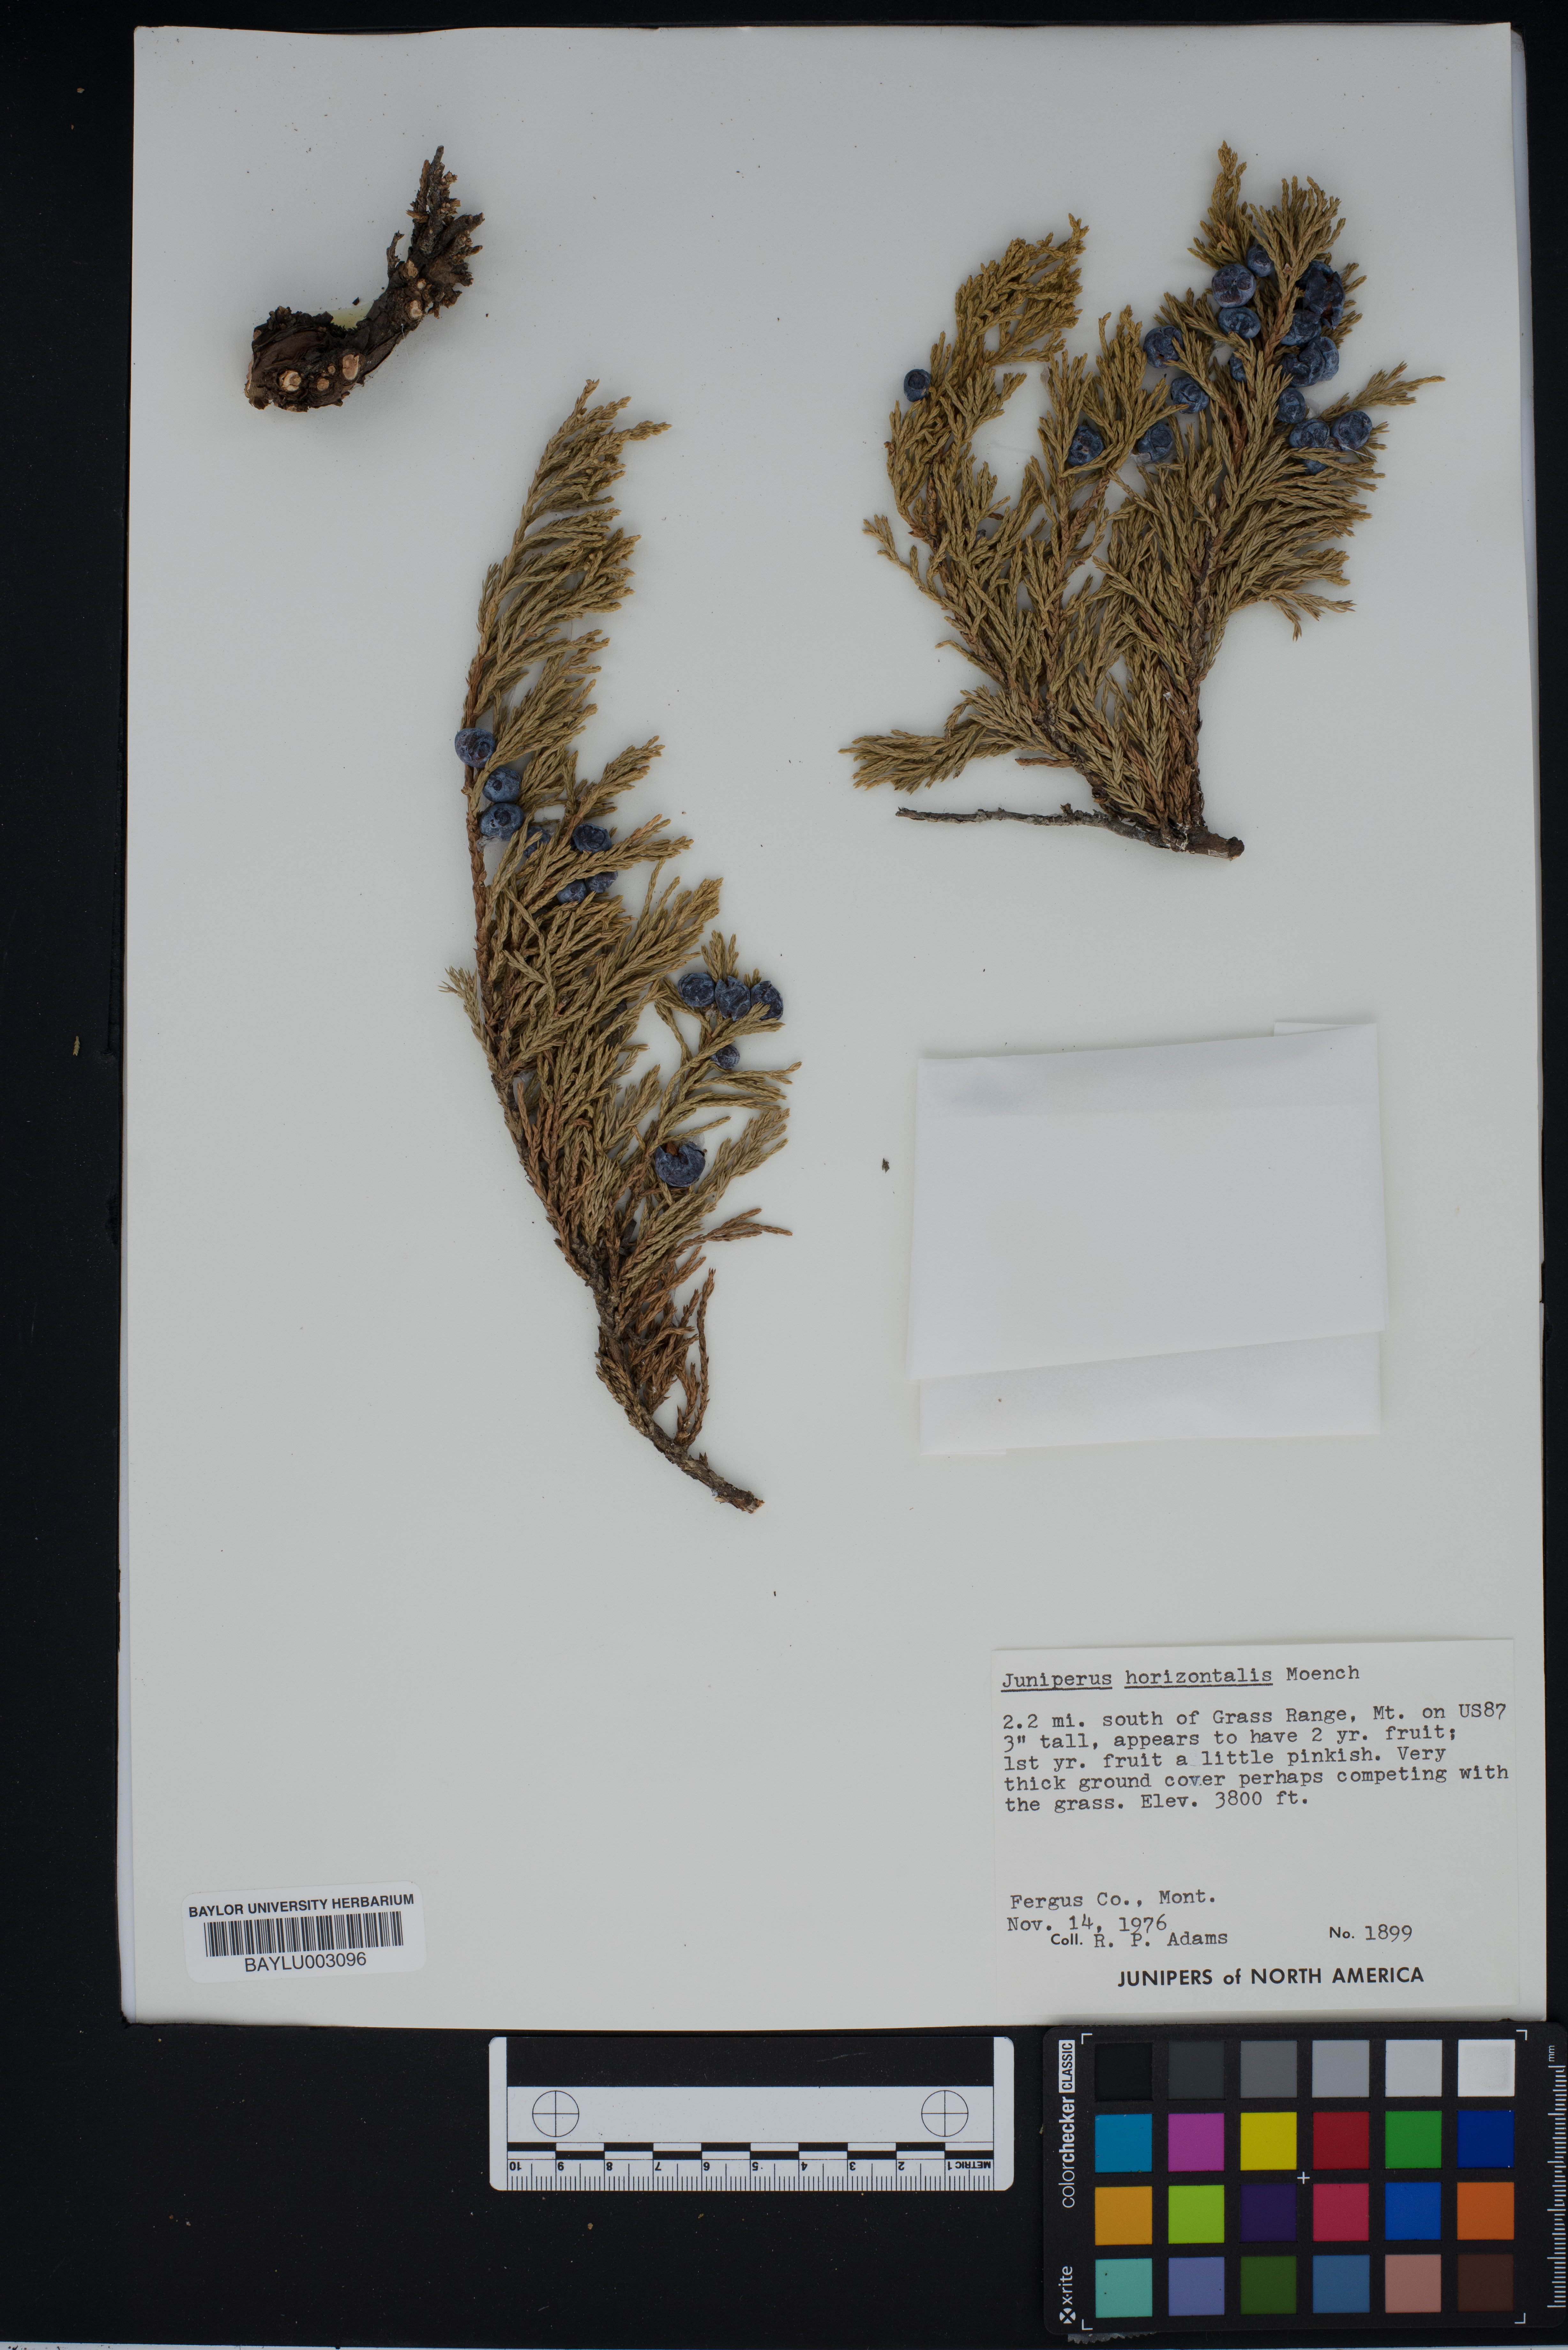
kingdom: Plantae
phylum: Tracheophyta
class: Pinopsida
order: Pinales
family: Cupressaceae
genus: Juniperus
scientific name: Juniperus horizontalis
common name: Creeping juniper
